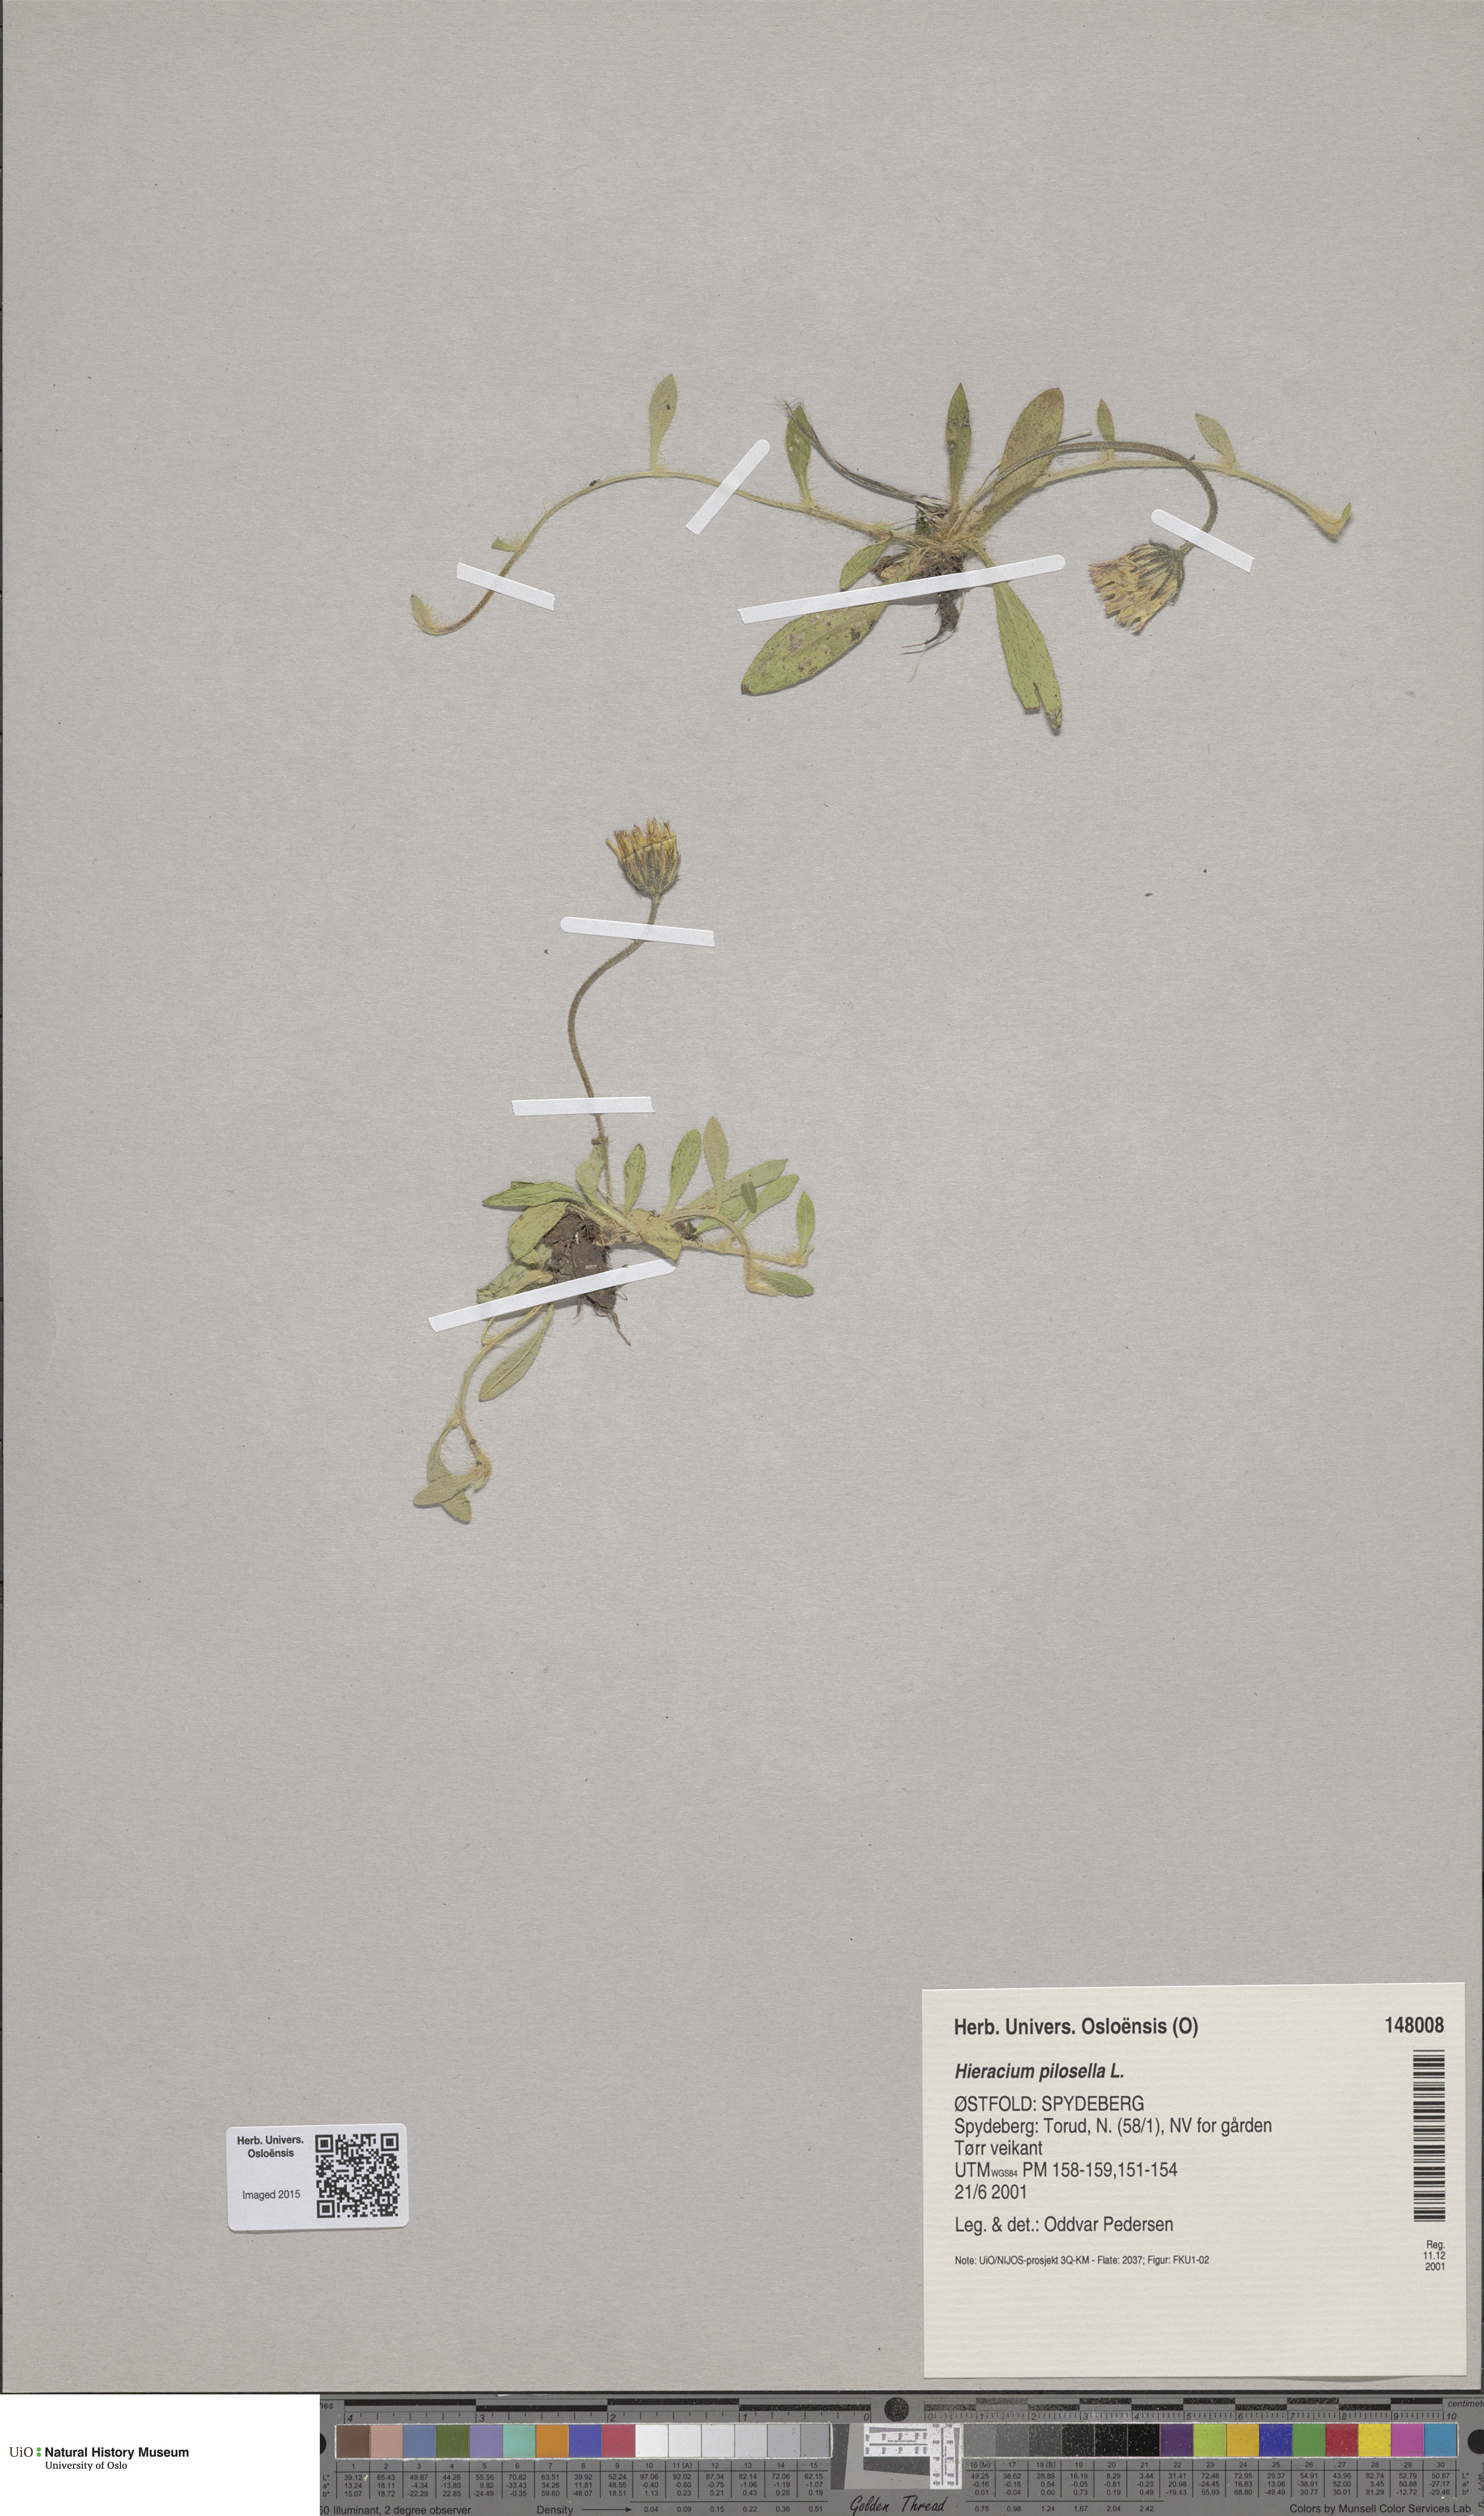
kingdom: Plantae
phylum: Tracheophyta
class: Magnoliopsida
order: Asterales
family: Asteraceae
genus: Pilosella
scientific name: Pilosella officinarum
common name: Mouse-ear hawkweed
